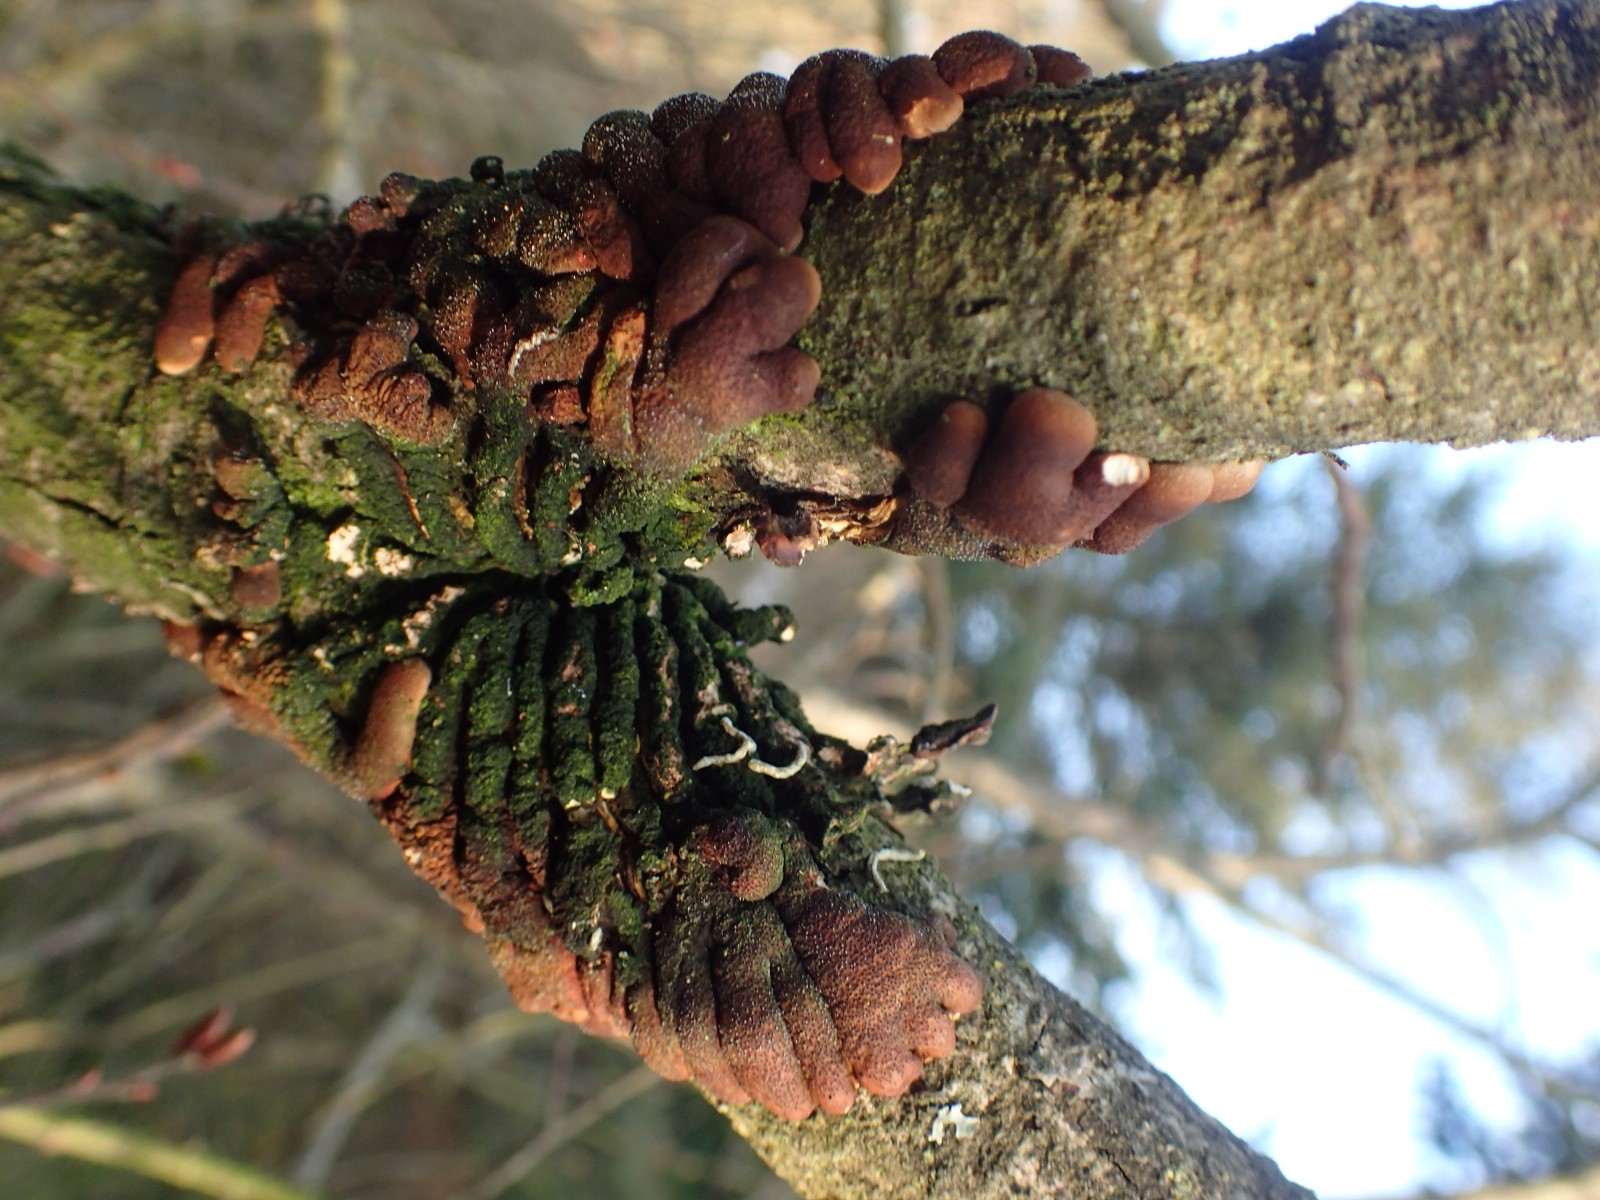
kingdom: Fungi
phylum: Ascomycota
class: Sordariomycetes
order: Hypocreales
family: Hypocreaceae
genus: Hypocreopsis
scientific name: Hypocreopsis lichenoides
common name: pilfinger
